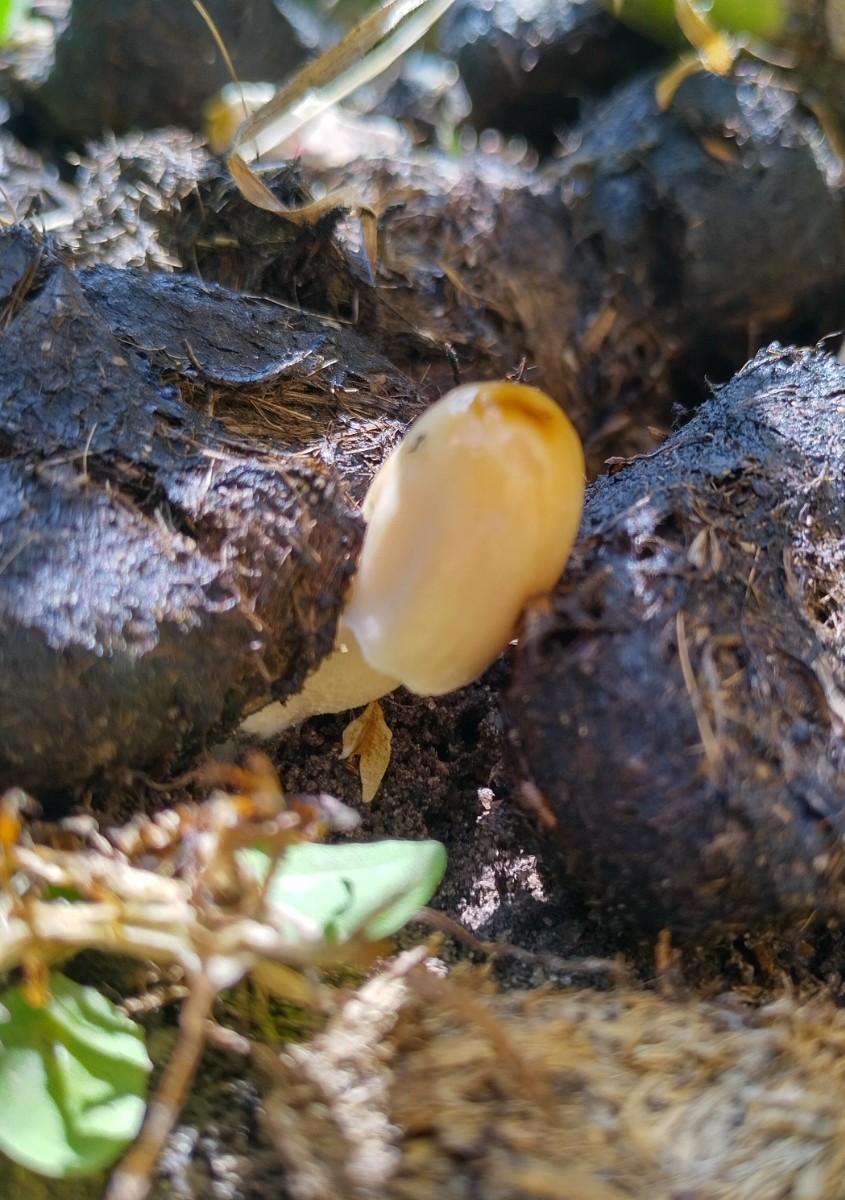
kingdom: Fungi
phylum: Basidiomycota
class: Agaricomycetes
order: Agaricales
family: Bolbitiaceae
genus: Bolbitius
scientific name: Bolbitius coprophilus
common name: rosa gulhat
